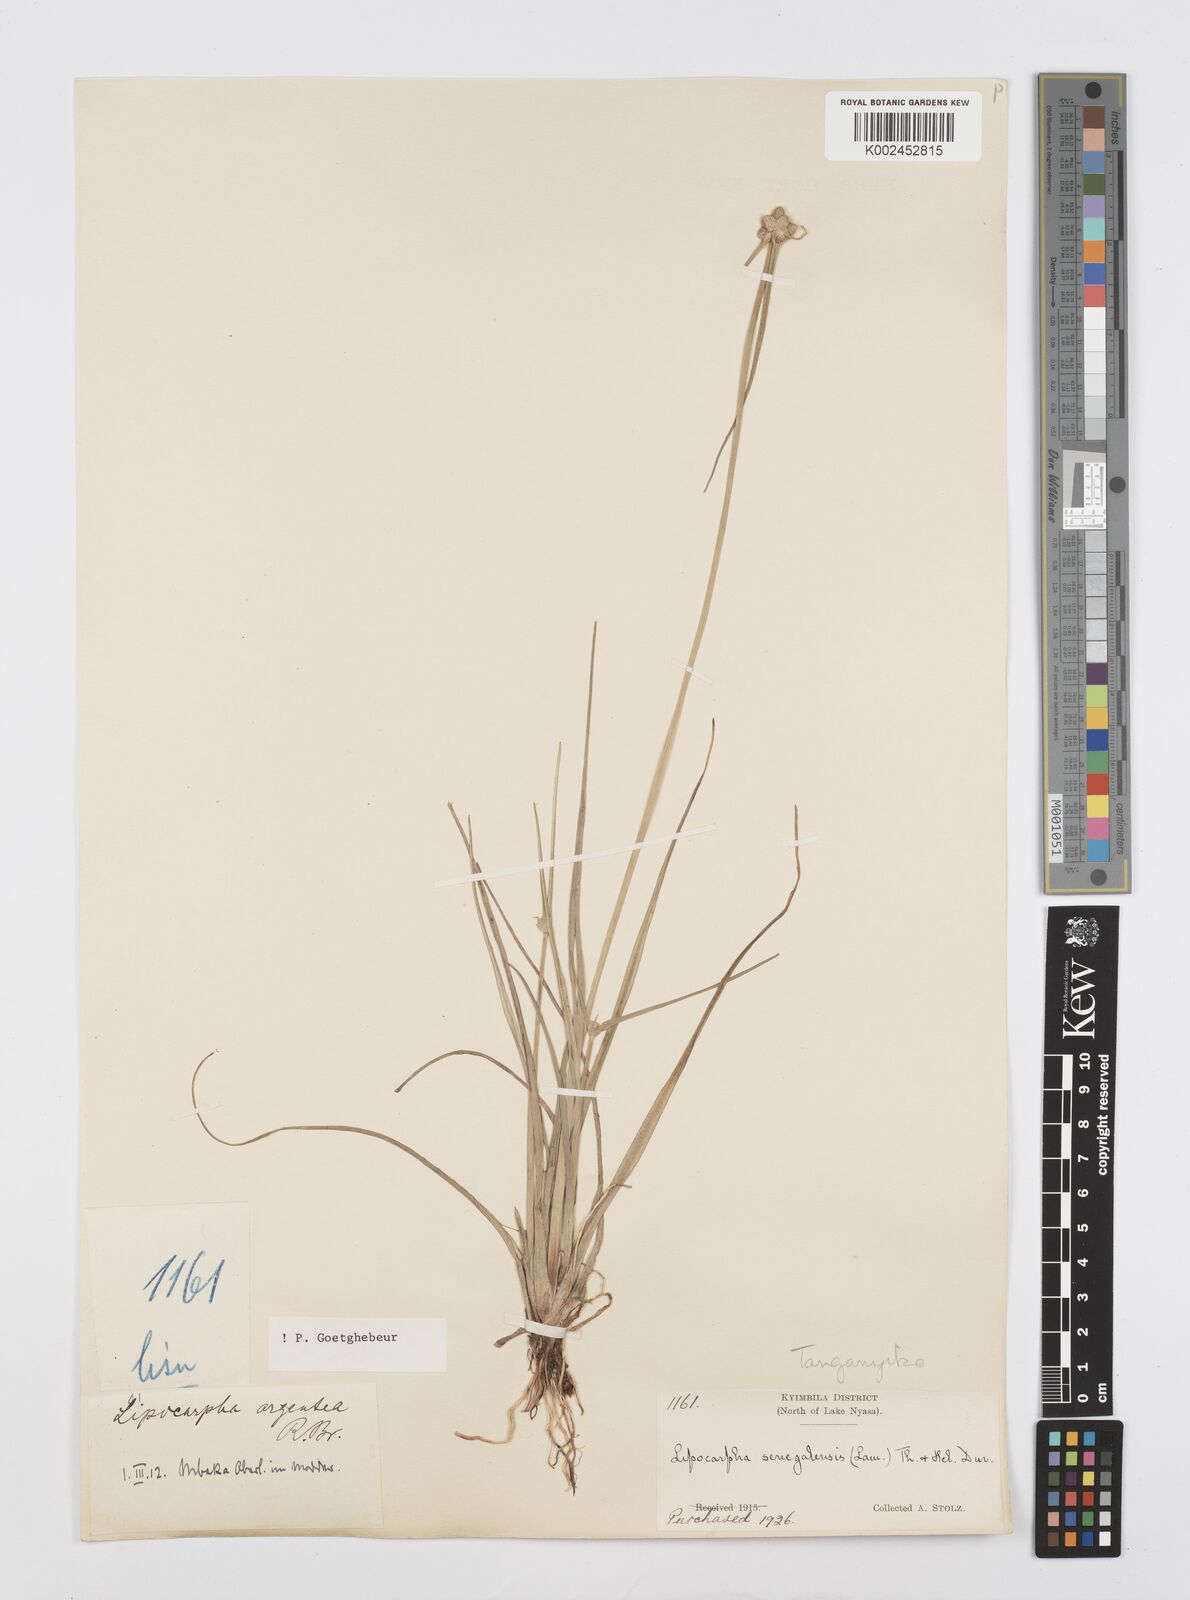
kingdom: Plantae
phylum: Tracheophyta
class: Liliopsida
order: Poales
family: Cyperaceae
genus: Cyperus
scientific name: Cyperus albescens
